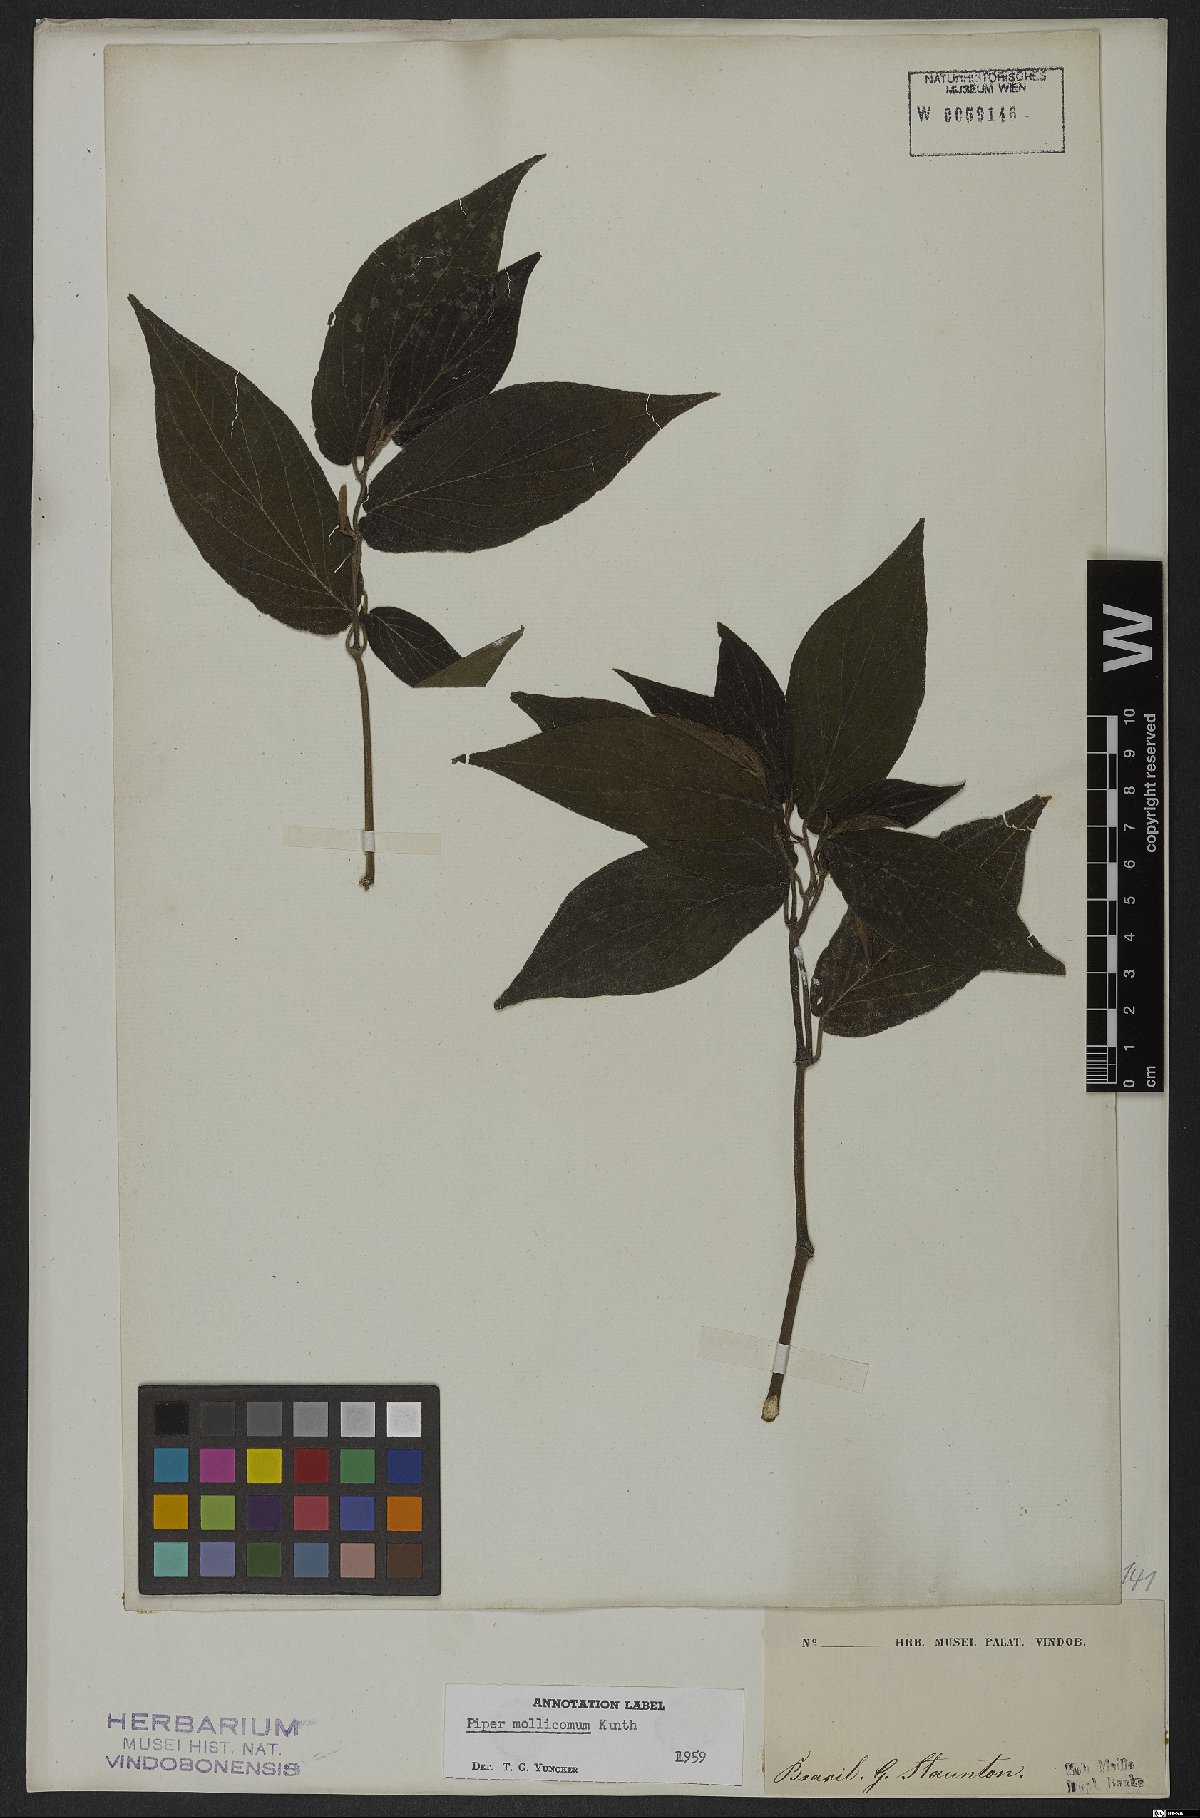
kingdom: Plantae
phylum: Tracheophyta
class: Magnoliopsida
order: Piperales
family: Piperaceae
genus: Piper
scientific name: Piper mollicomum
